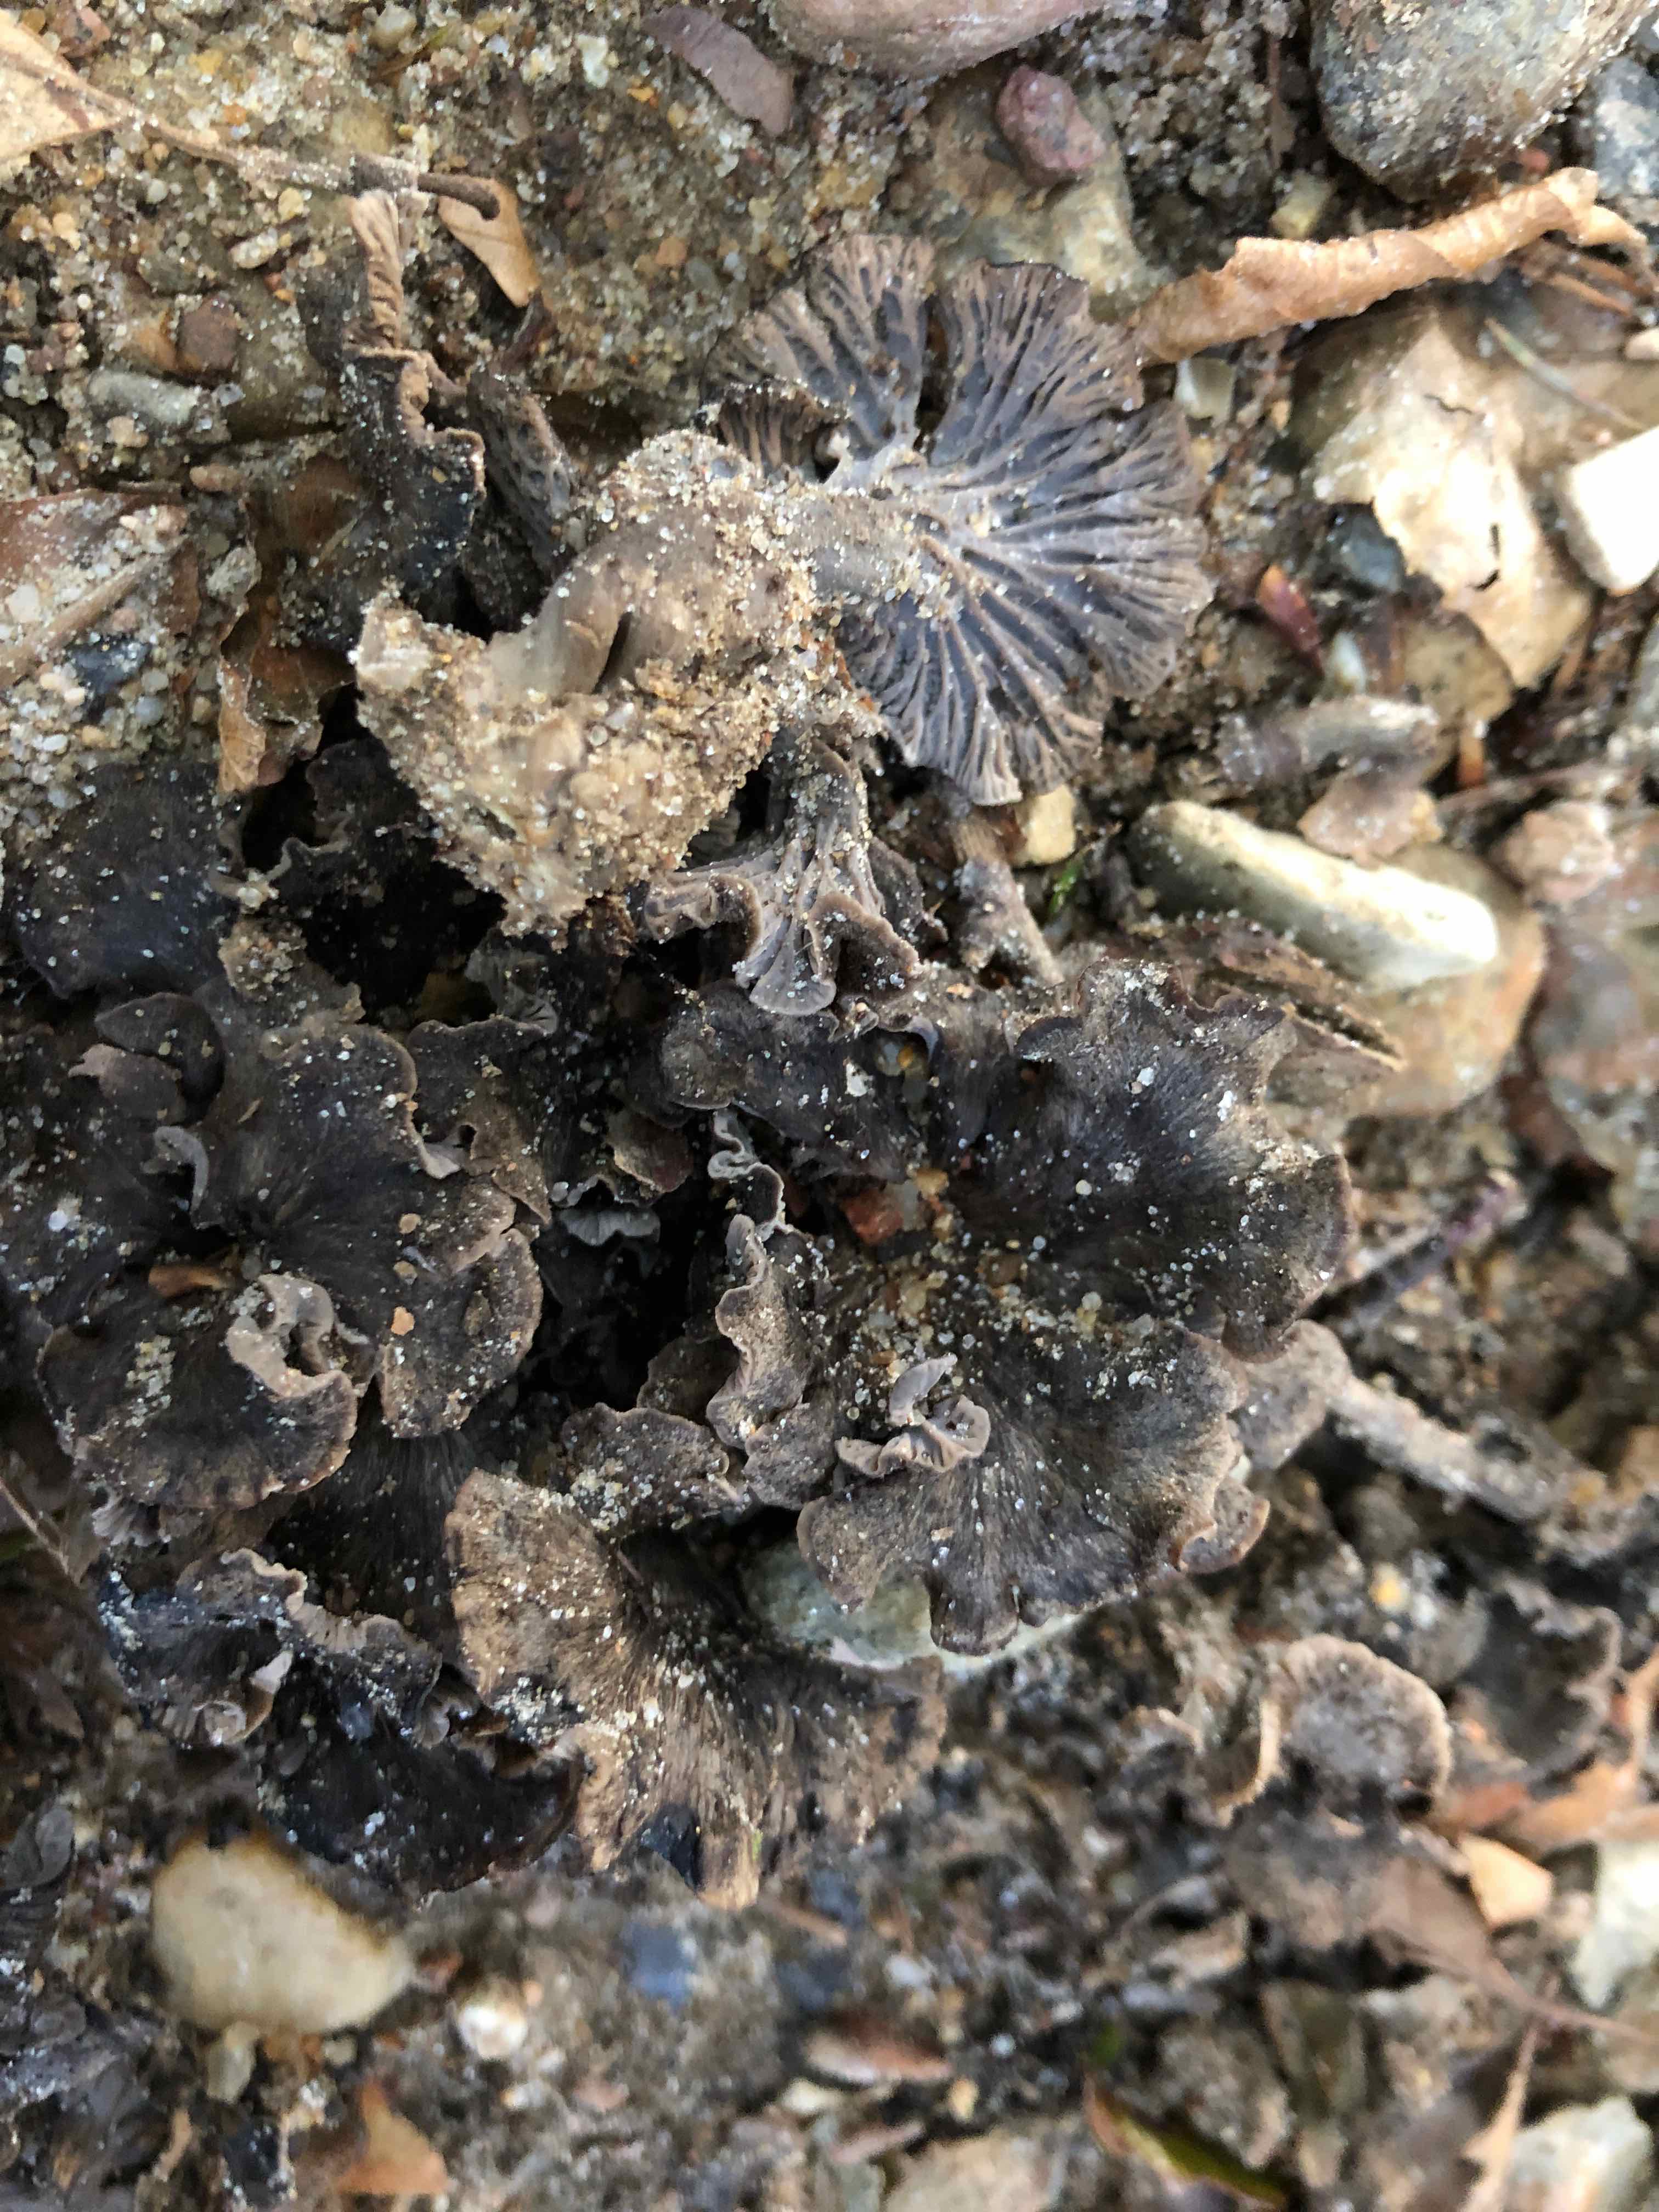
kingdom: Fungi
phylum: Basidiomycota
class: Agaricomycetes
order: Cantharellales
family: Hydnaceae
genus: Cantharellus
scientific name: Cantharellus cinereus
